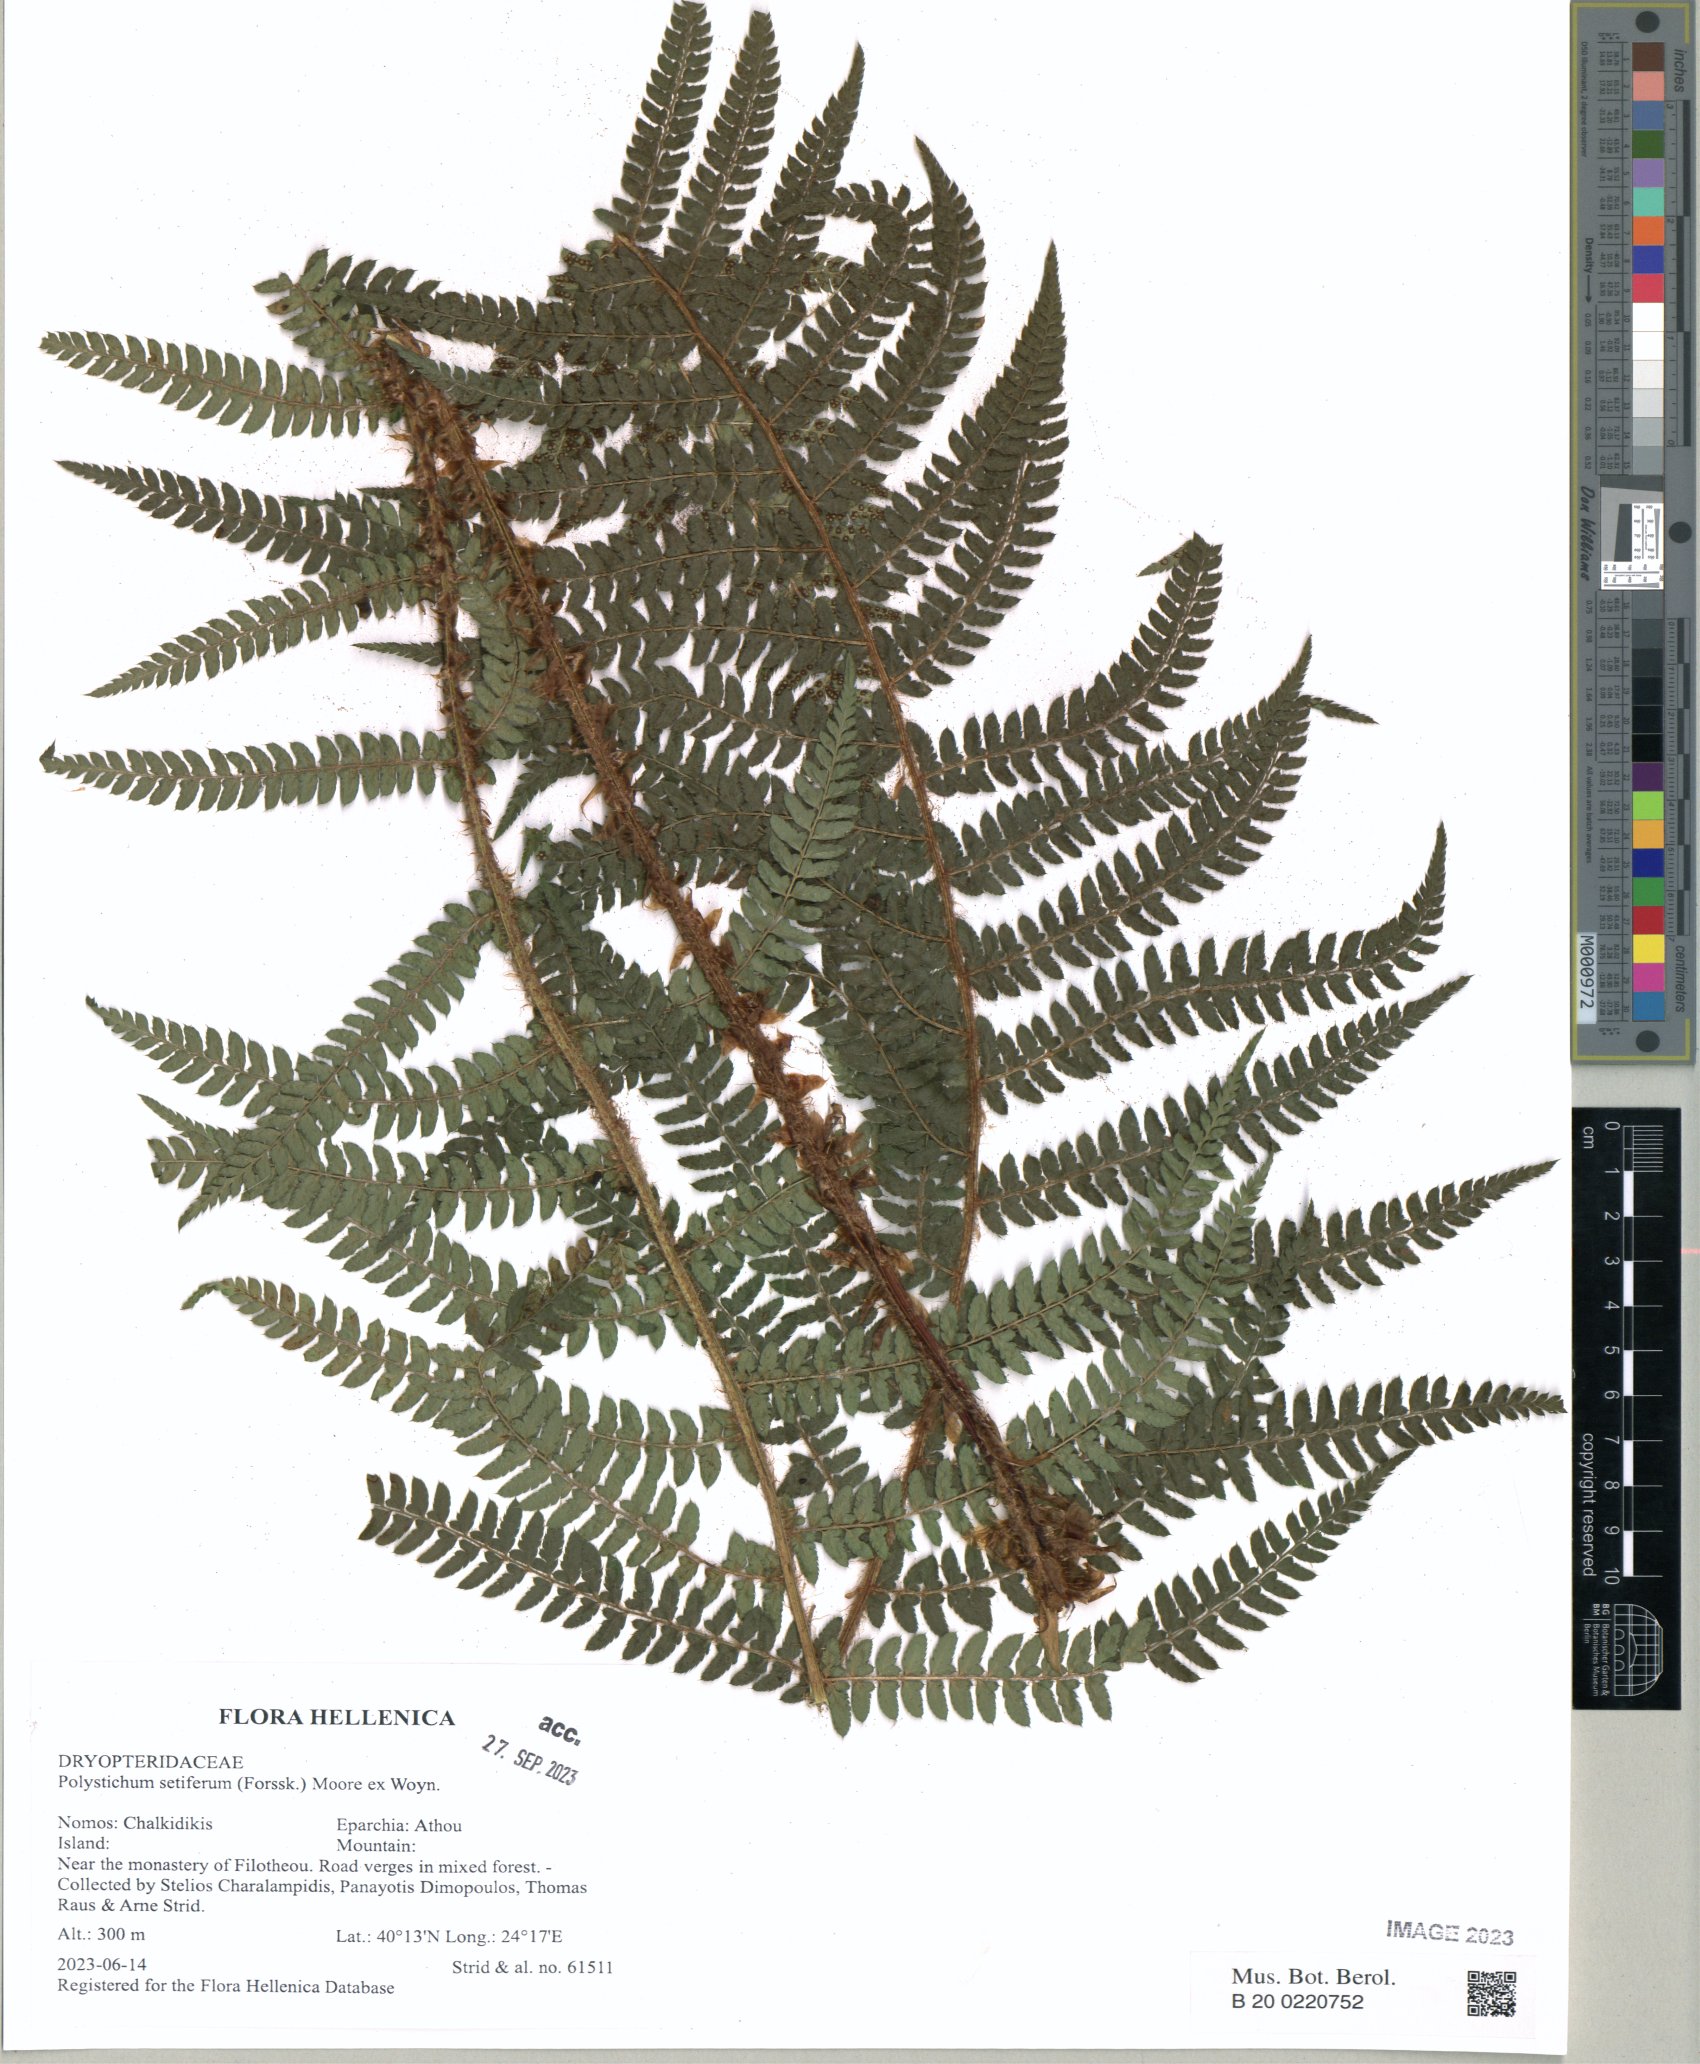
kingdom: Plantae
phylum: Tracheophyta
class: Polypodiopsida
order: Polypodiales
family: Dryopteridaceae
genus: Polystichum
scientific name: Polystichum setiferum
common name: Soft shield-fern
